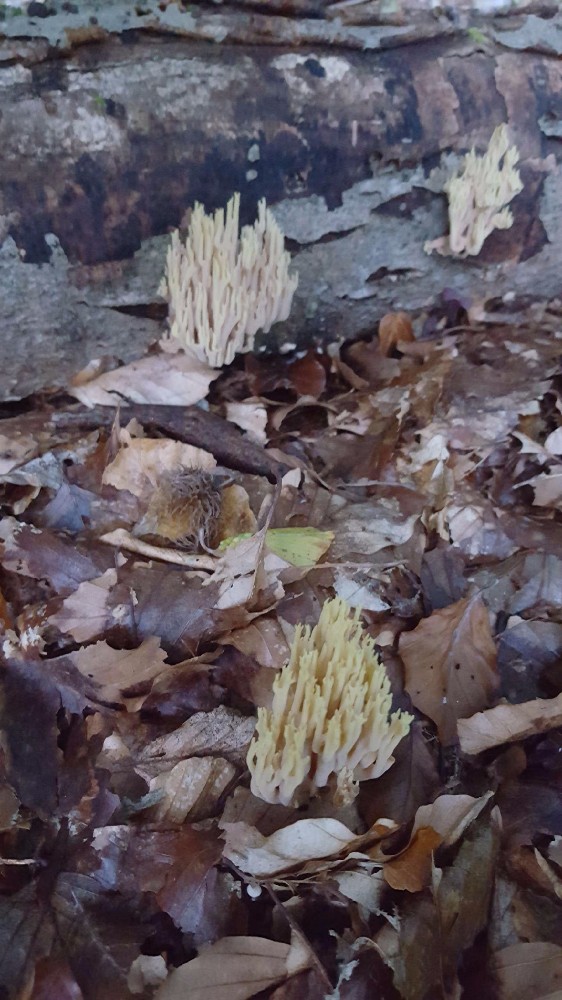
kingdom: Fungi
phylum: Basidiomycota
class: Agaricomycetes
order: Gomphales
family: Gomphaceae
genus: Ramaria
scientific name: Ramaria stricta
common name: rank koralsvamp
